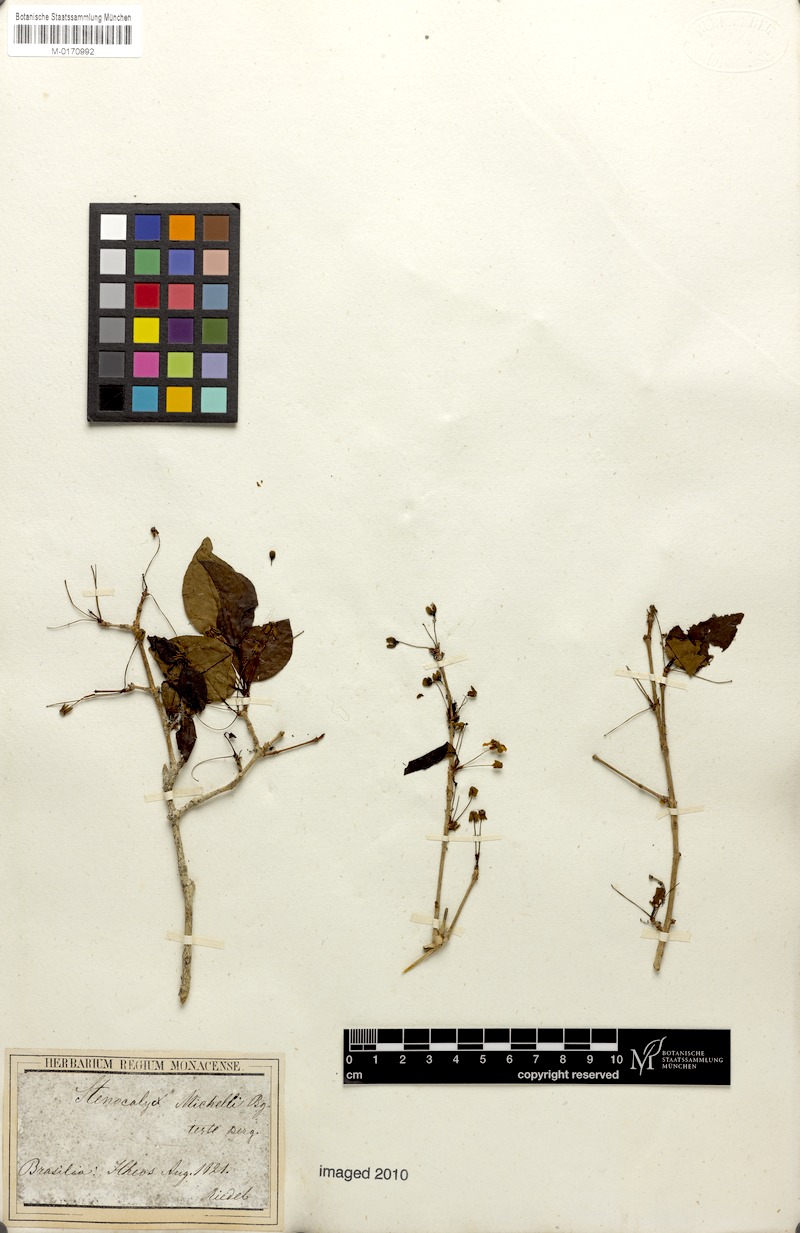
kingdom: Plantae
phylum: Tracheophyta
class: Magnoliopsida
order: Myrtales
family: Myrtaceae
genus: Eugenia
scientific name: Eugenia uniflora
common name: Surinam cherry
